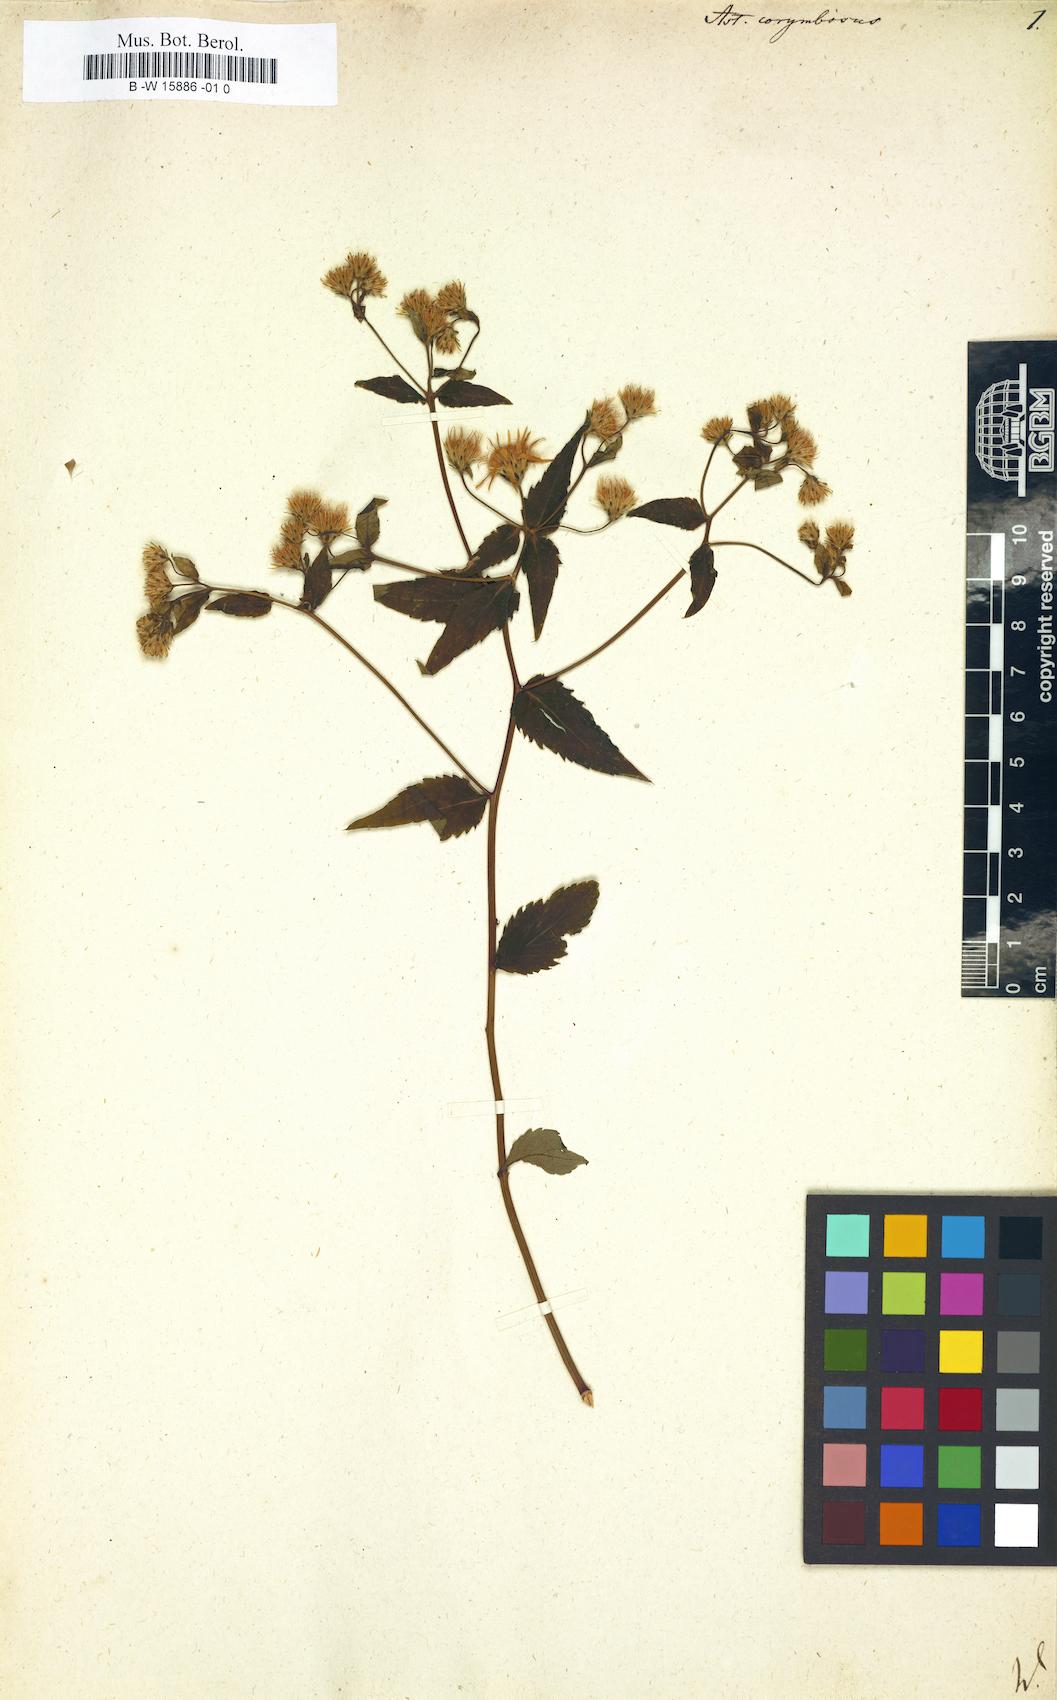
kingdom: Plantae
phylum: Tracheophyta
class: Magnoliopsida
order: Asterales
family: Asteraceae
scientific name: Asteraceae
